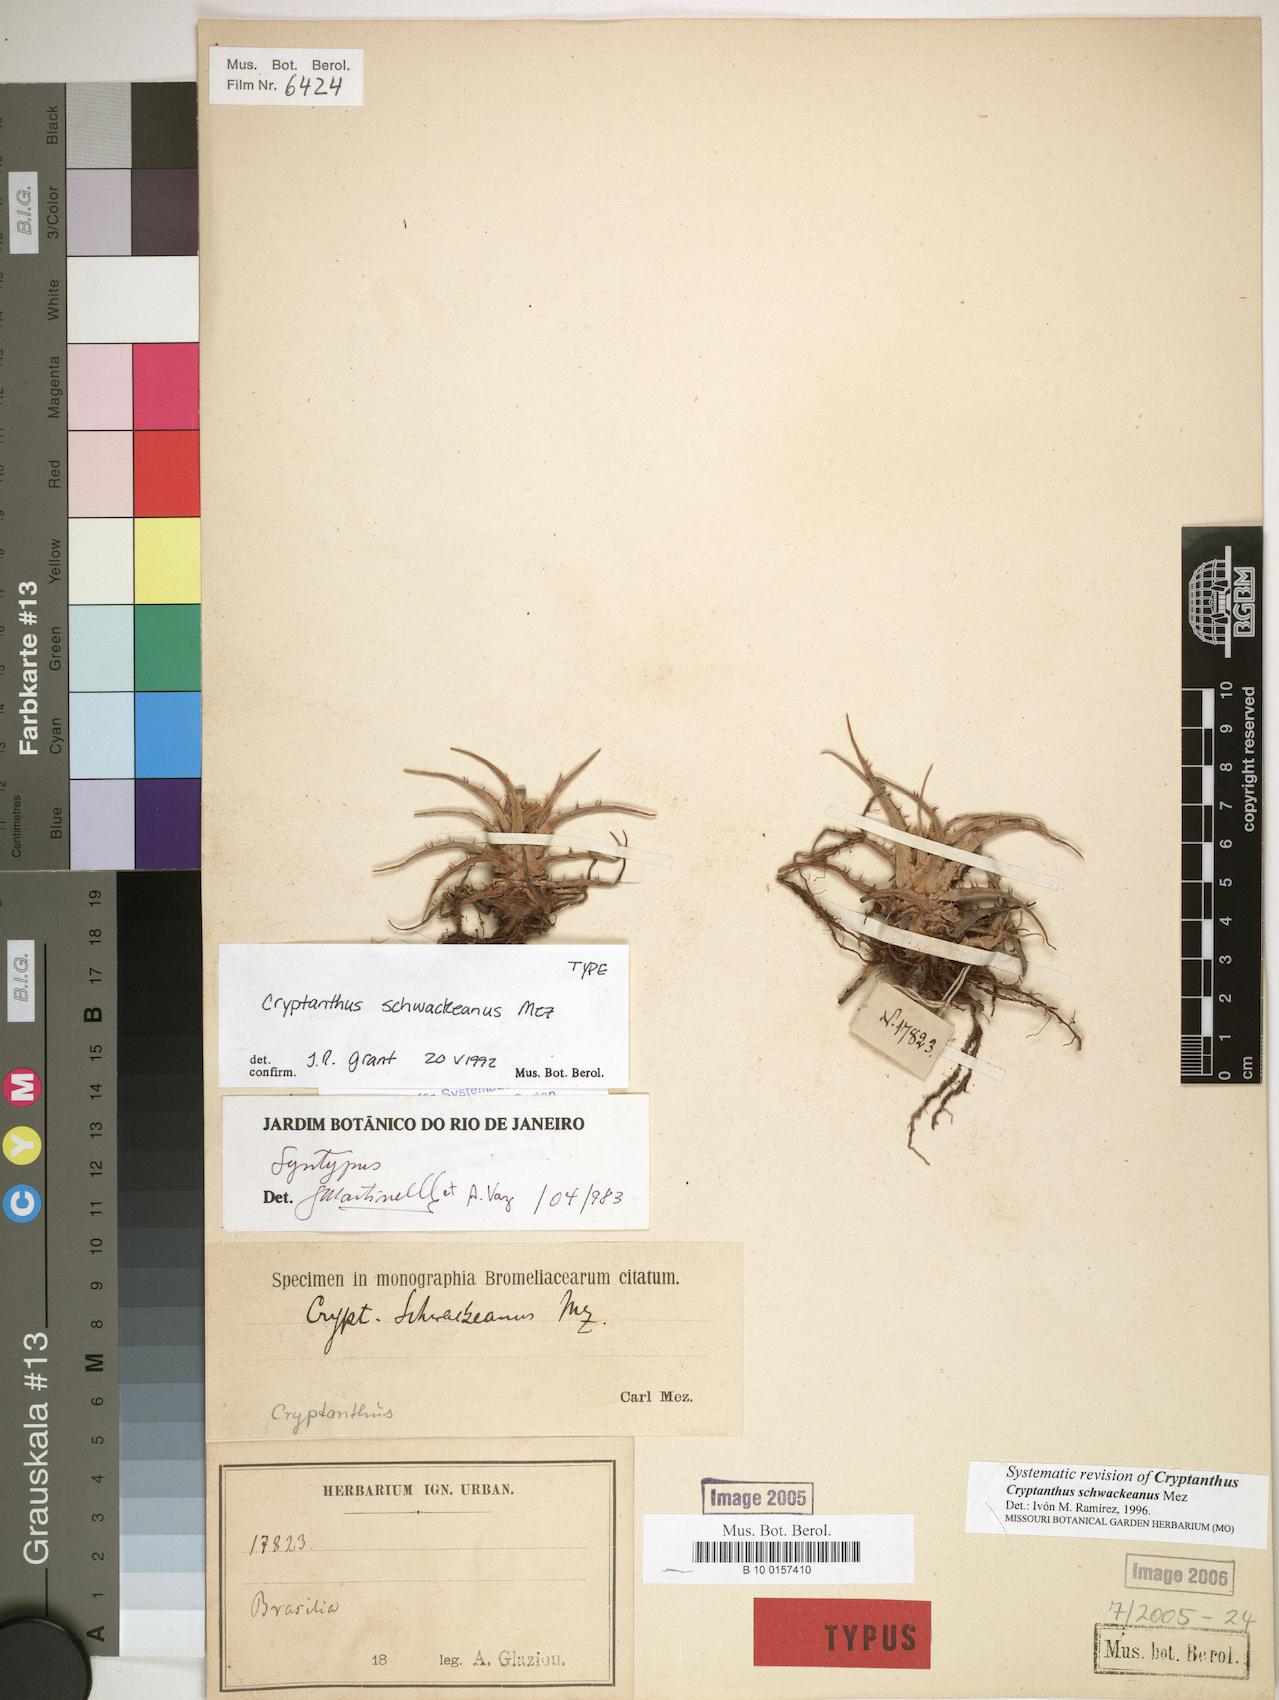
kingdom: Plantae
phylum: Tracheophyta
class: Liliopsida
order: Poales
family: Bromeliaceae
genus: Hoplocryptanthus
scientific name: Hoplocryptanthus schwackeanus
